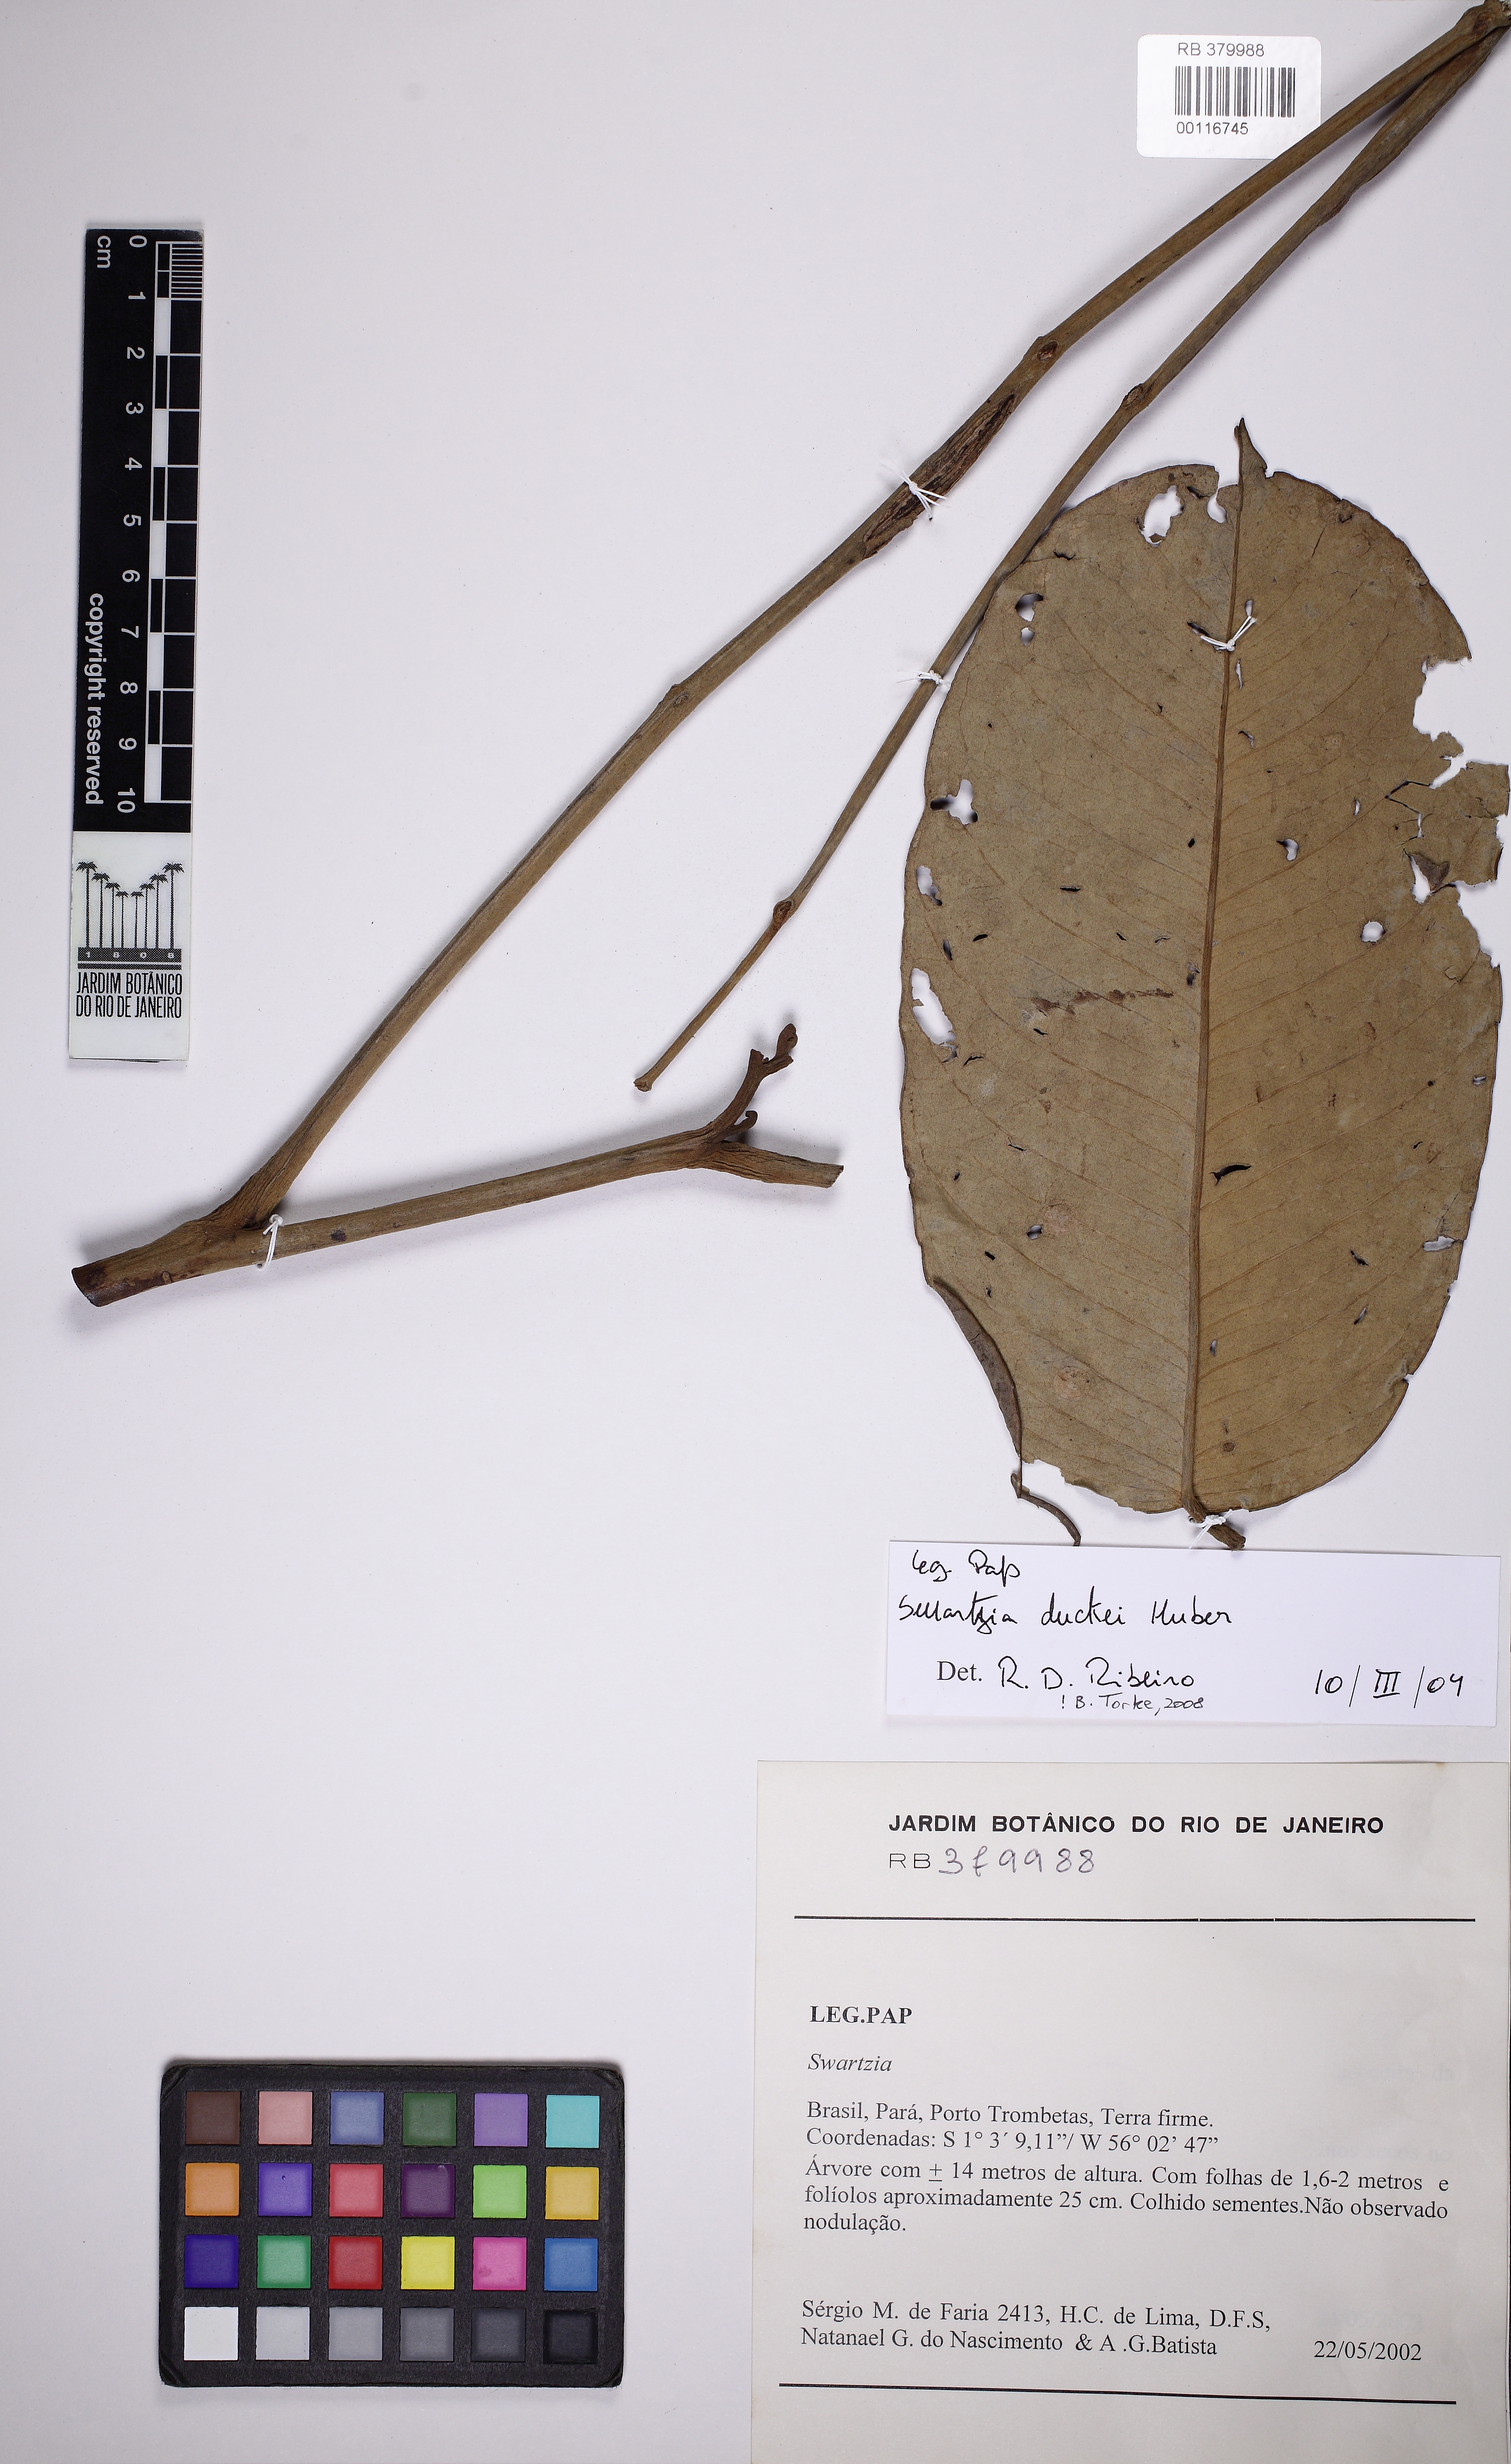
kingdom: Plantae
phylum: Tracheophyta
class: Magnoliopsida
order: Fabales
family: Fabaceae
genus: Swartzia
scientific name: Swartzia duckei
